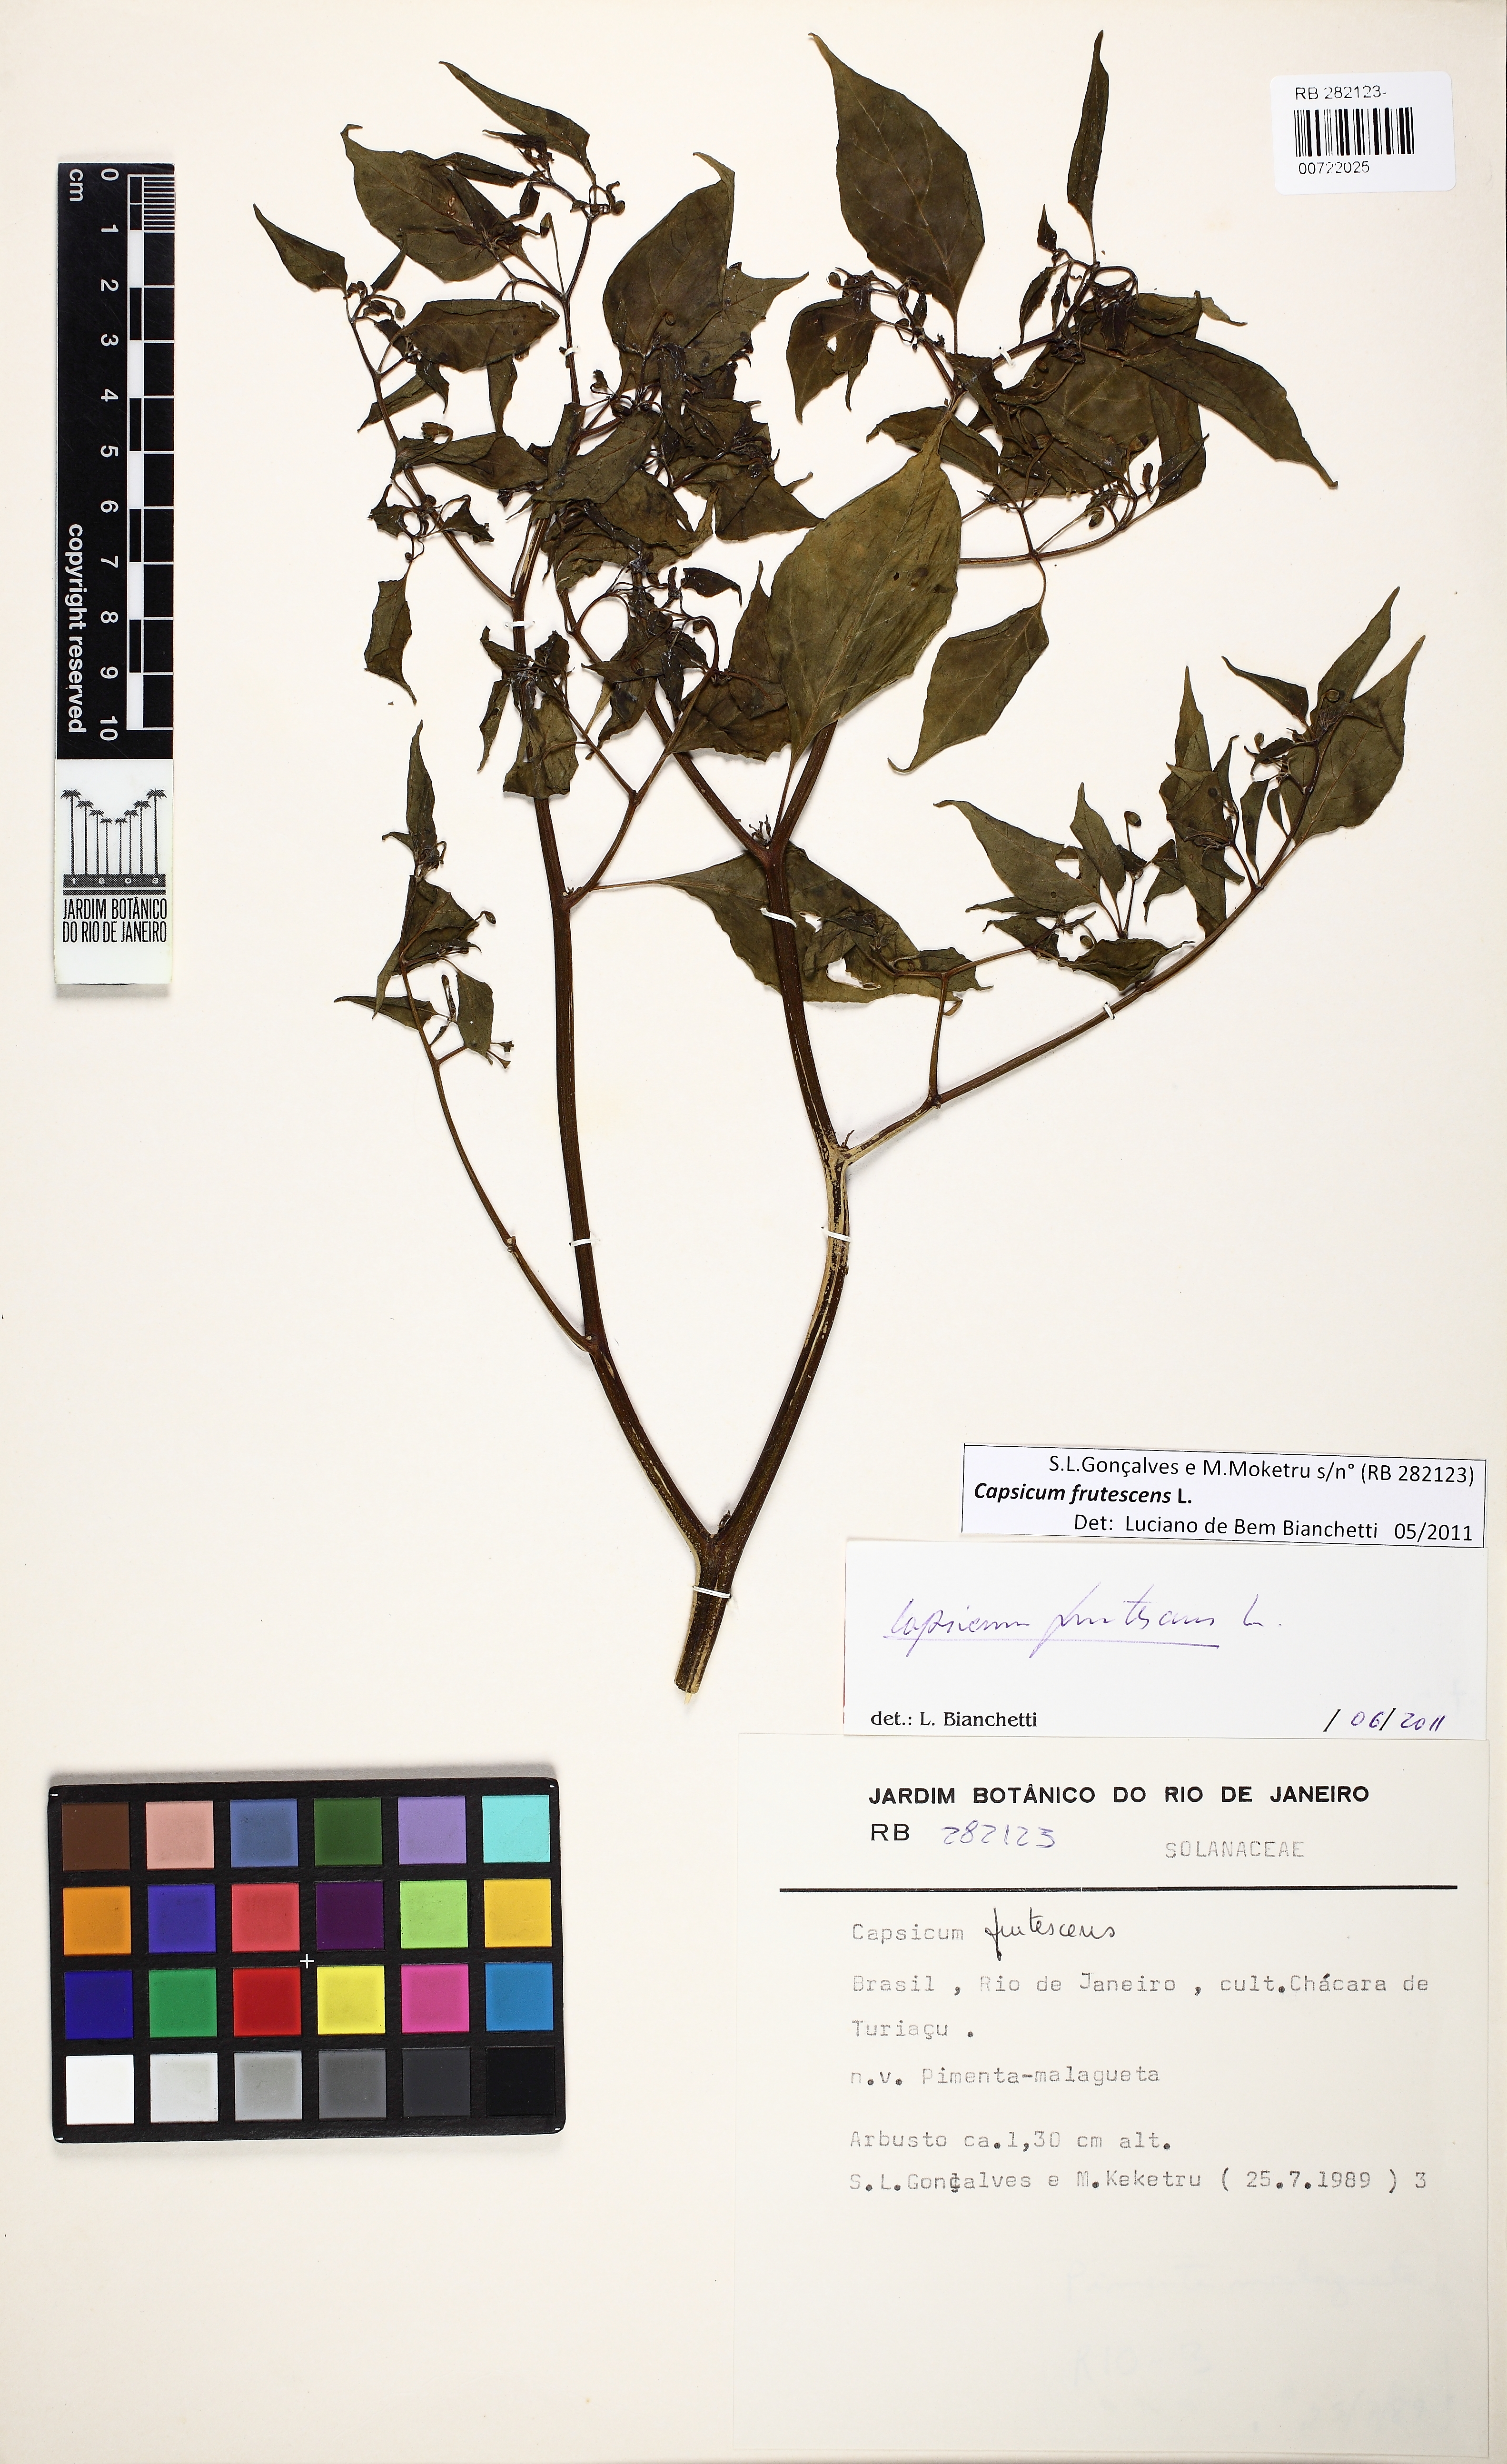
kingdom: Plantae
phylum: Tracheophyta
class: Magnoliopsida
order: Solanales
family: Solanaceae
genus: Capsicum
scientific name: Capsicum frutescens
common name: Bird pepper
